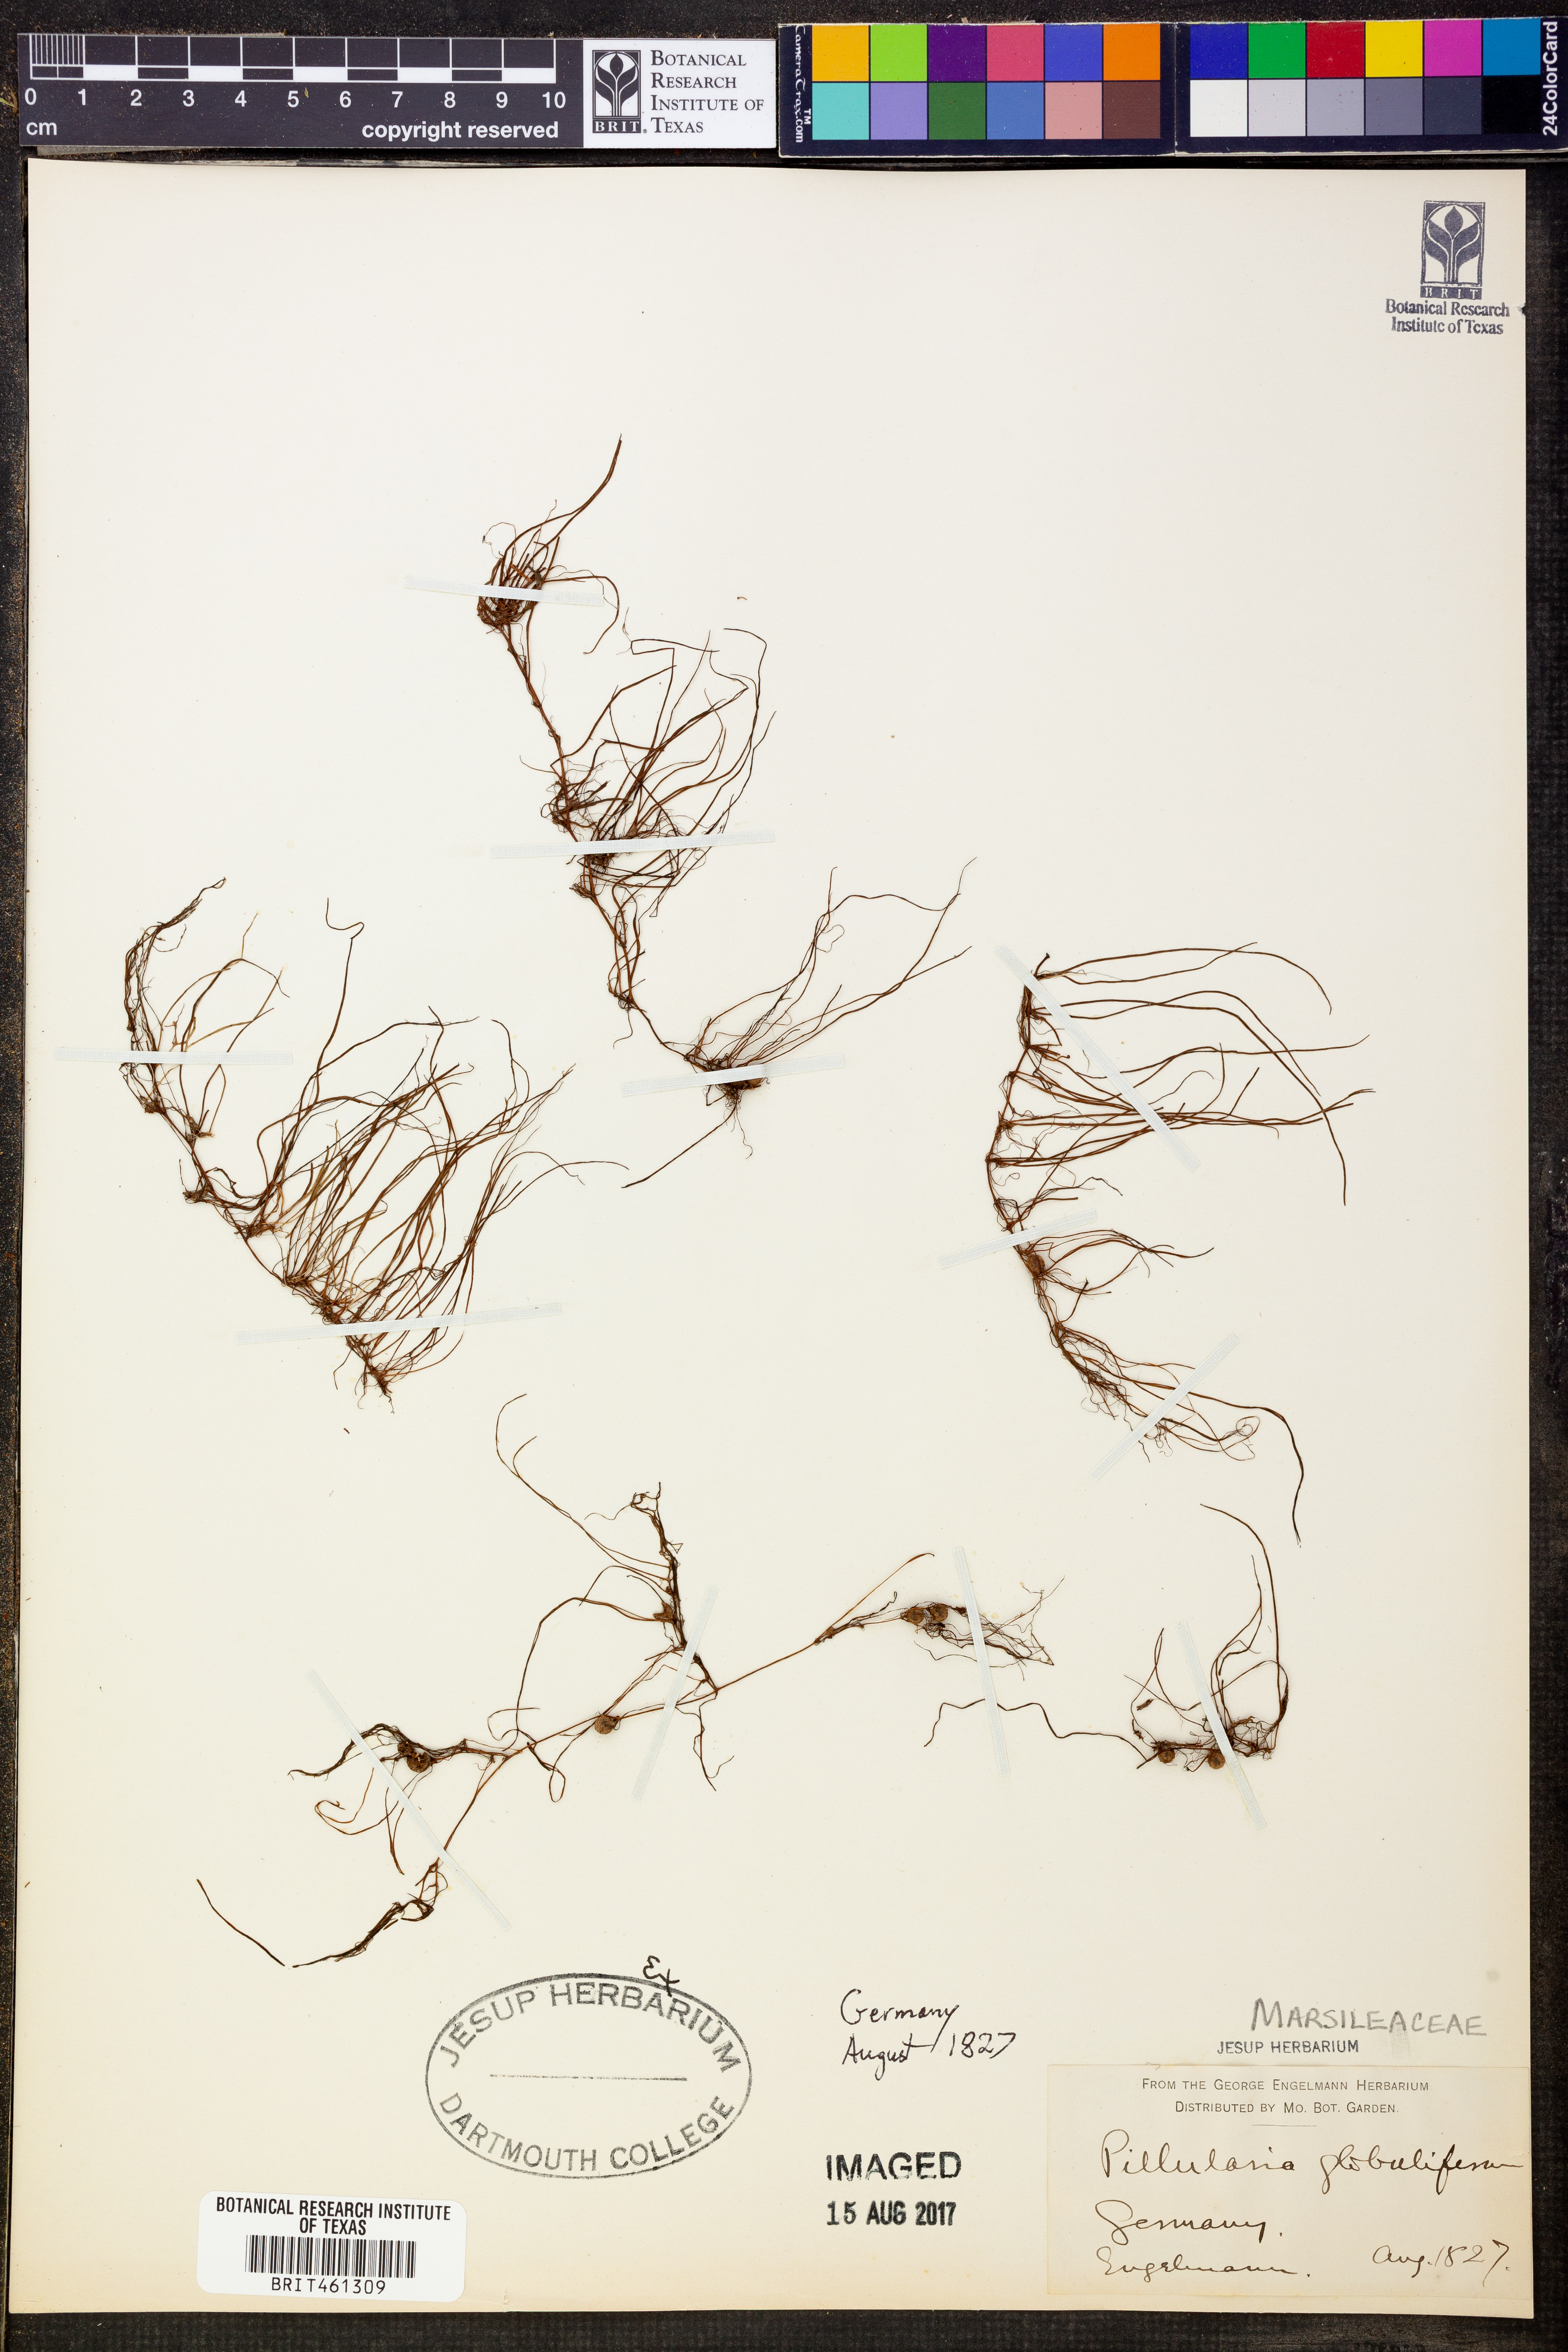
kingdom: Plantae
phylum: Tracheophyta
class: Polypodiopsida
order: Salviniales
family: Marsileaceae
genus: Pilularia
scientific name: Pilularia globulifera
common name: Pillwort
